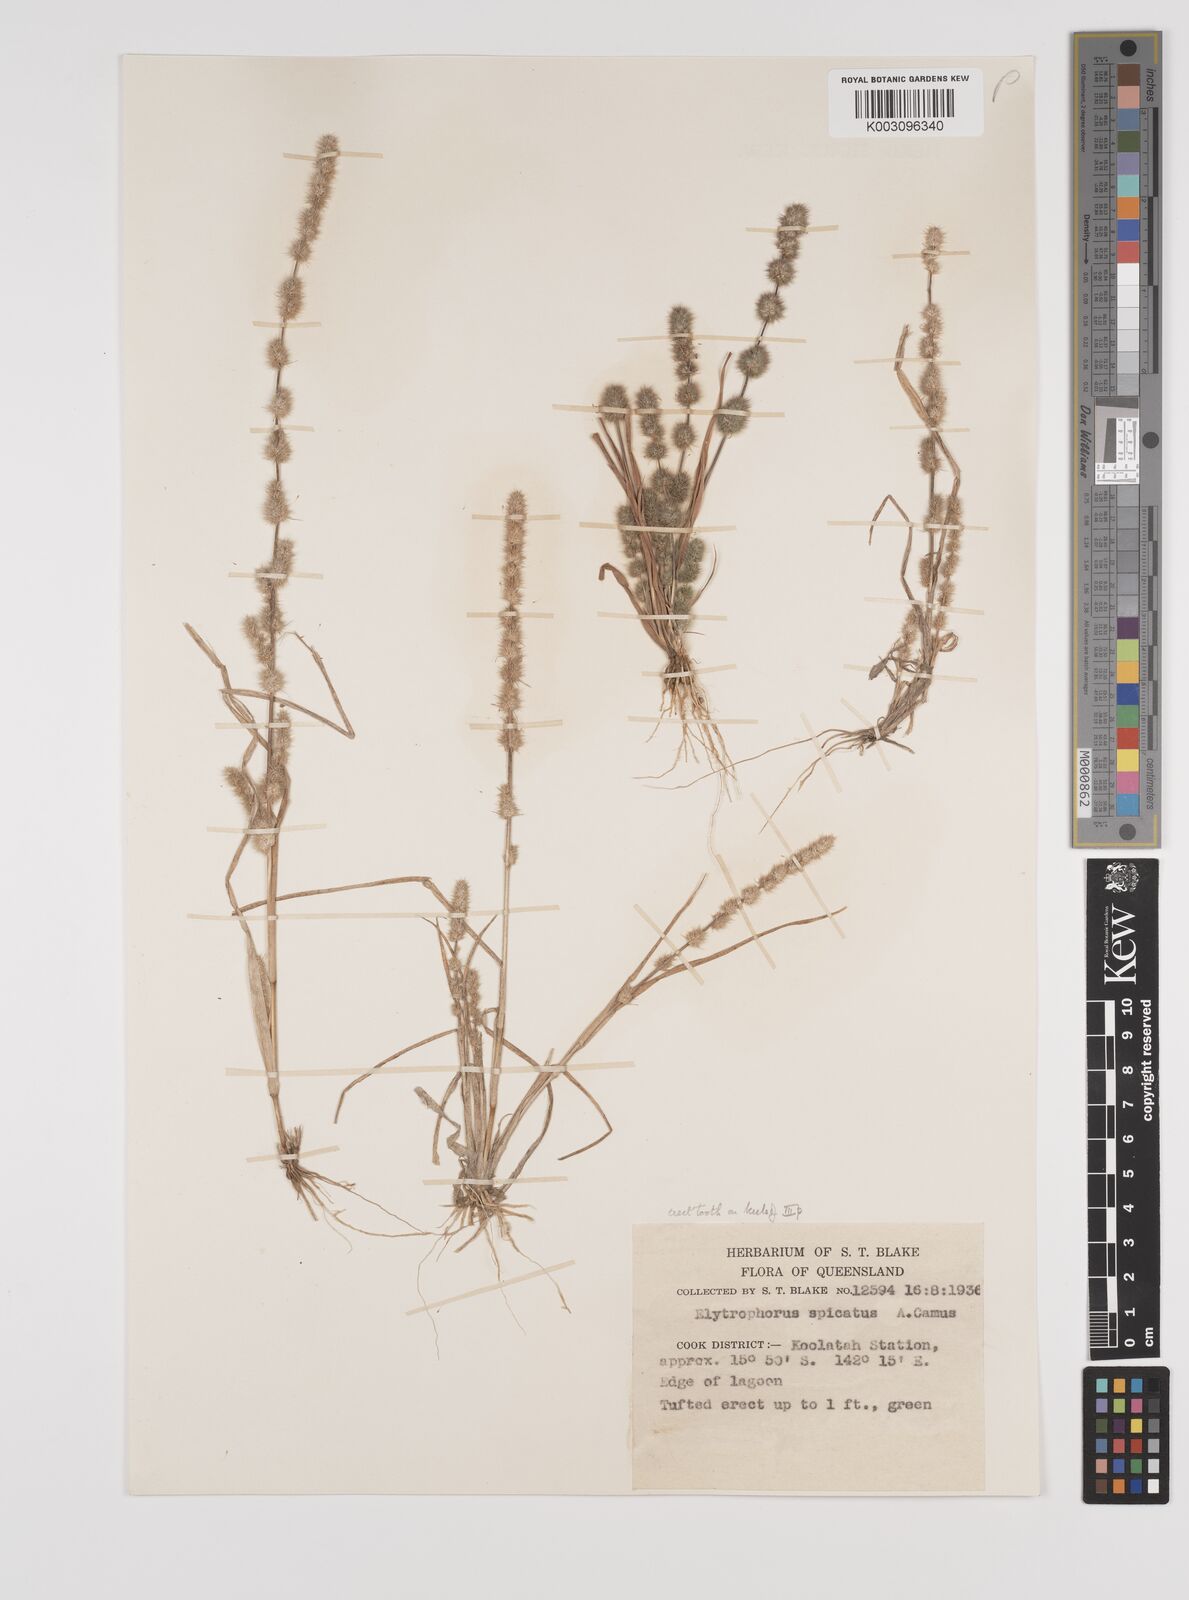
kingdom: Plantae
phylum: Tracheophyta
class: Liliopsida
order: Poales
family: Poaceae
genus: Elytrophorus
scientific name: Elytrophorus spicatus
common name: Spike grass
